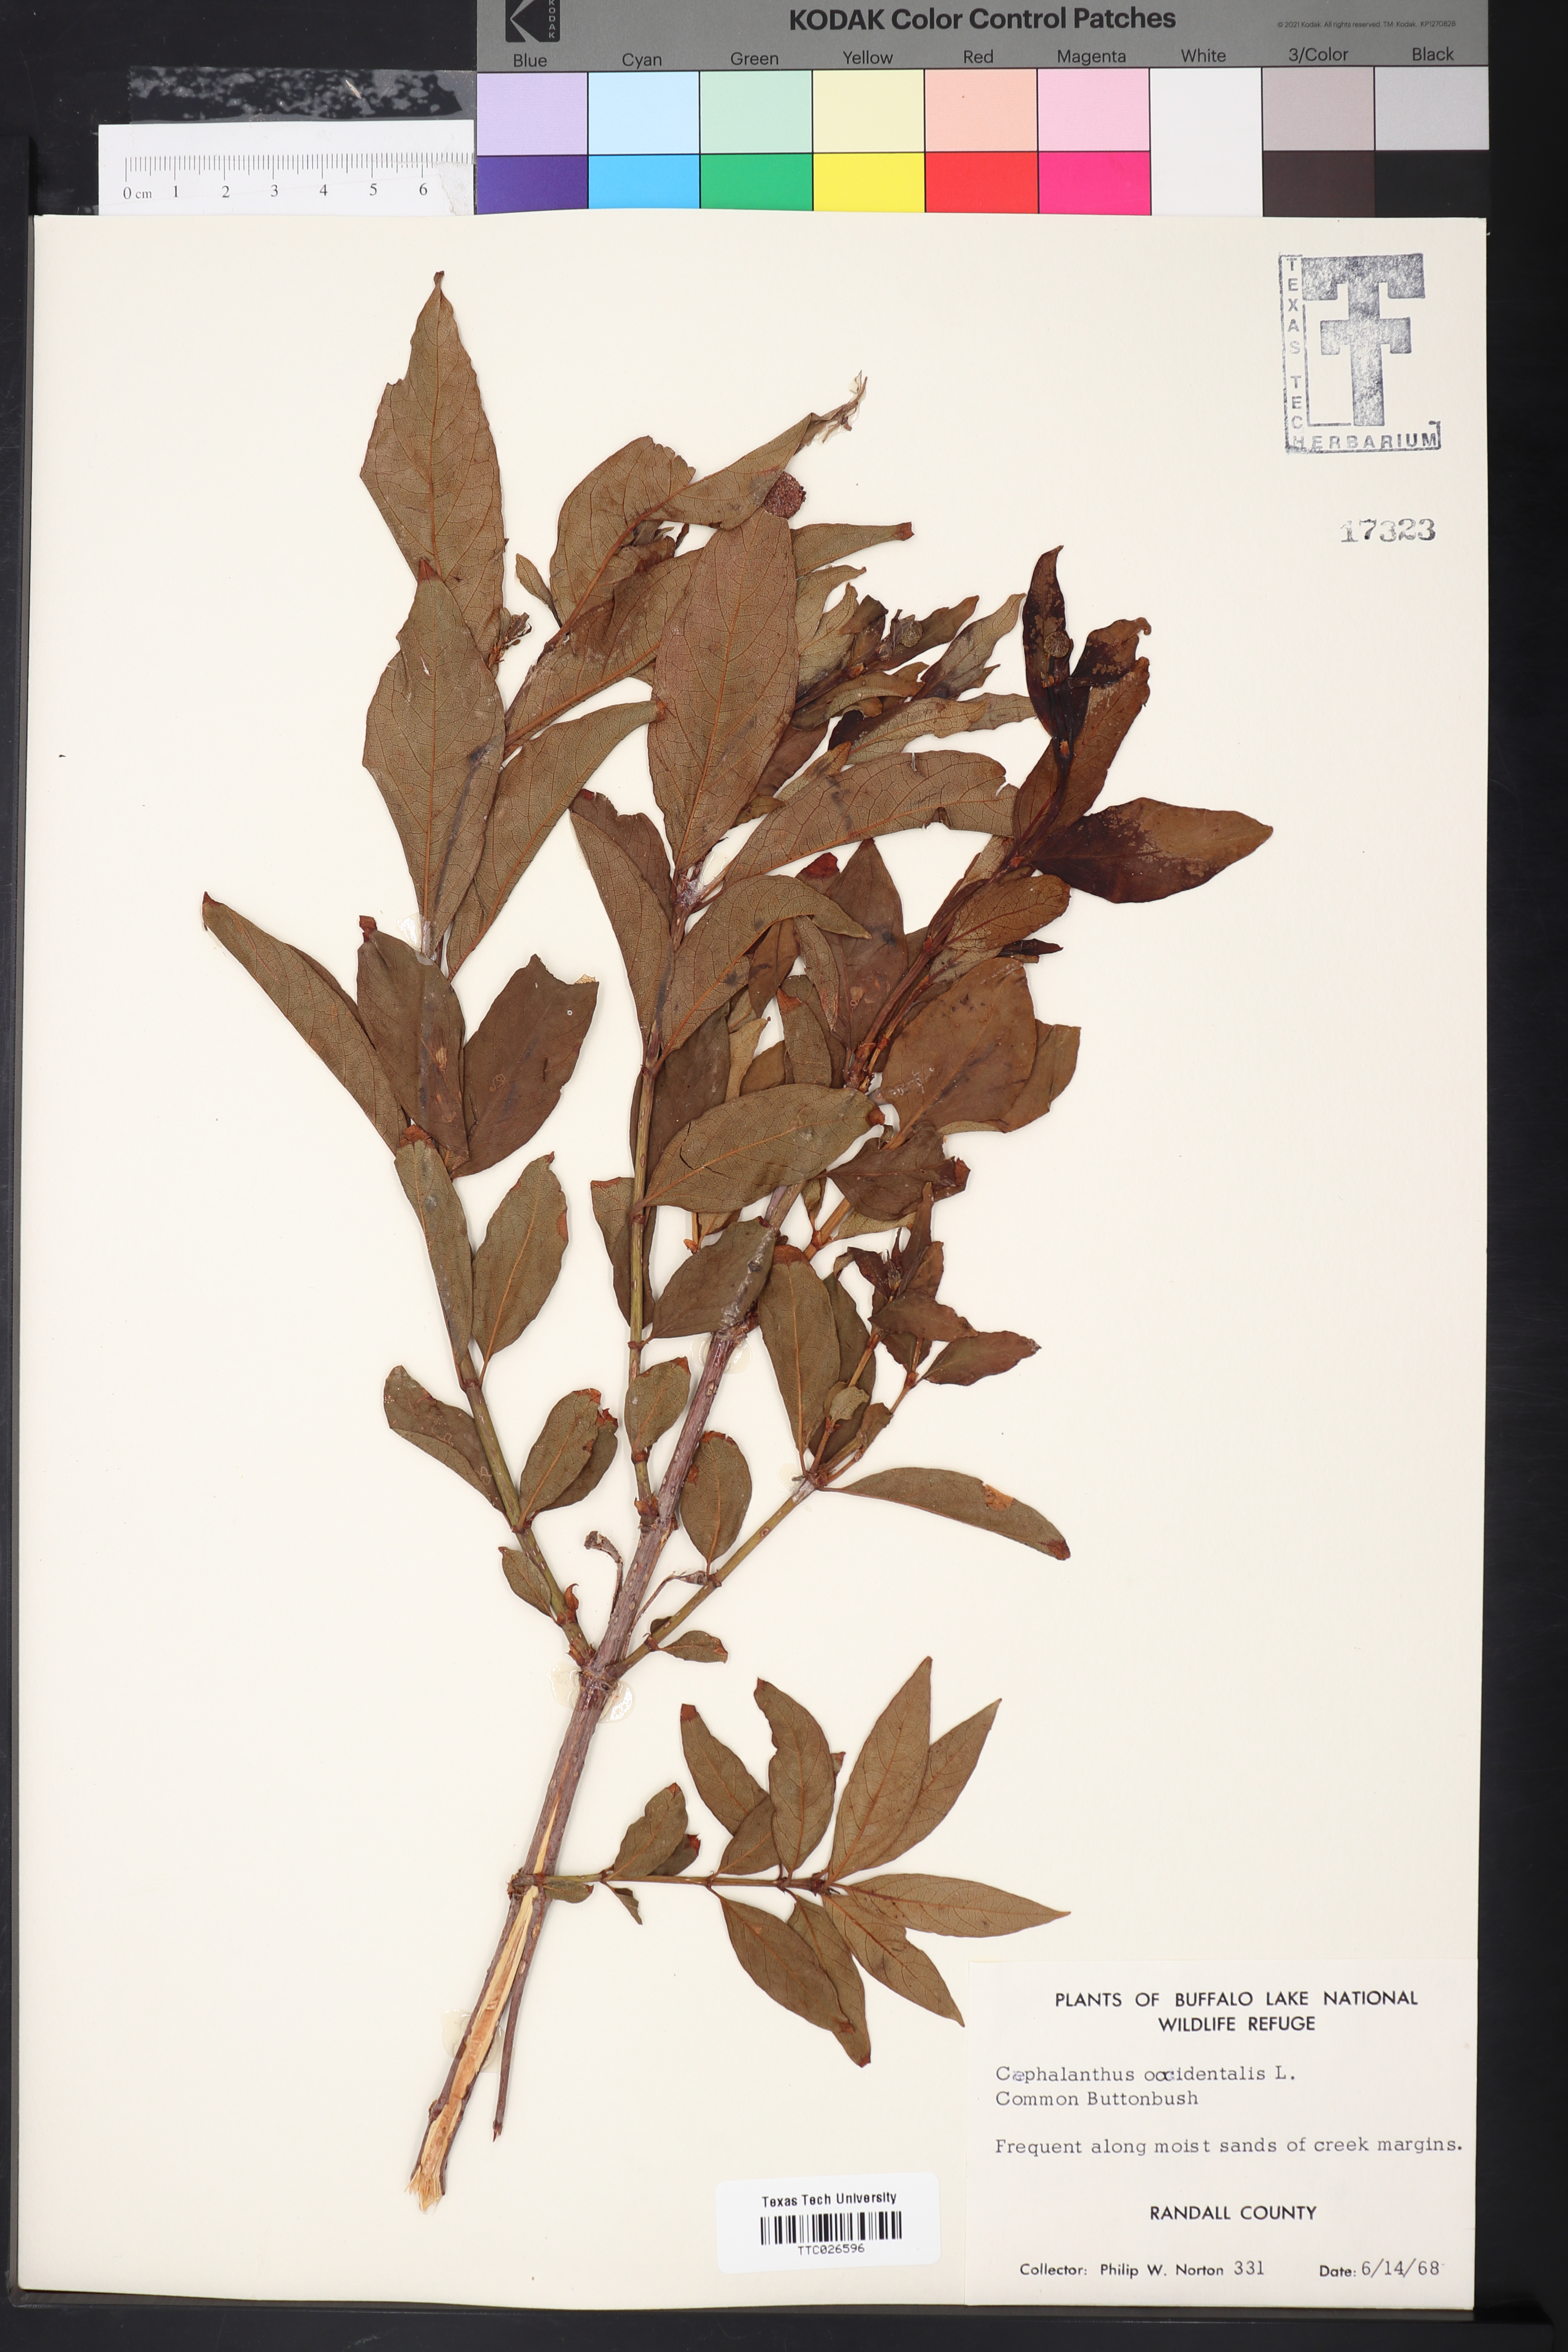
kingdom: Plantae
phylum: Tracheophyta
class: Magnoliopsida
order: Gentianales
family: Rubiaceae
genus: Cephalanthus
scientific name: Cephalanthus occidentalis
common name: Button-willow
